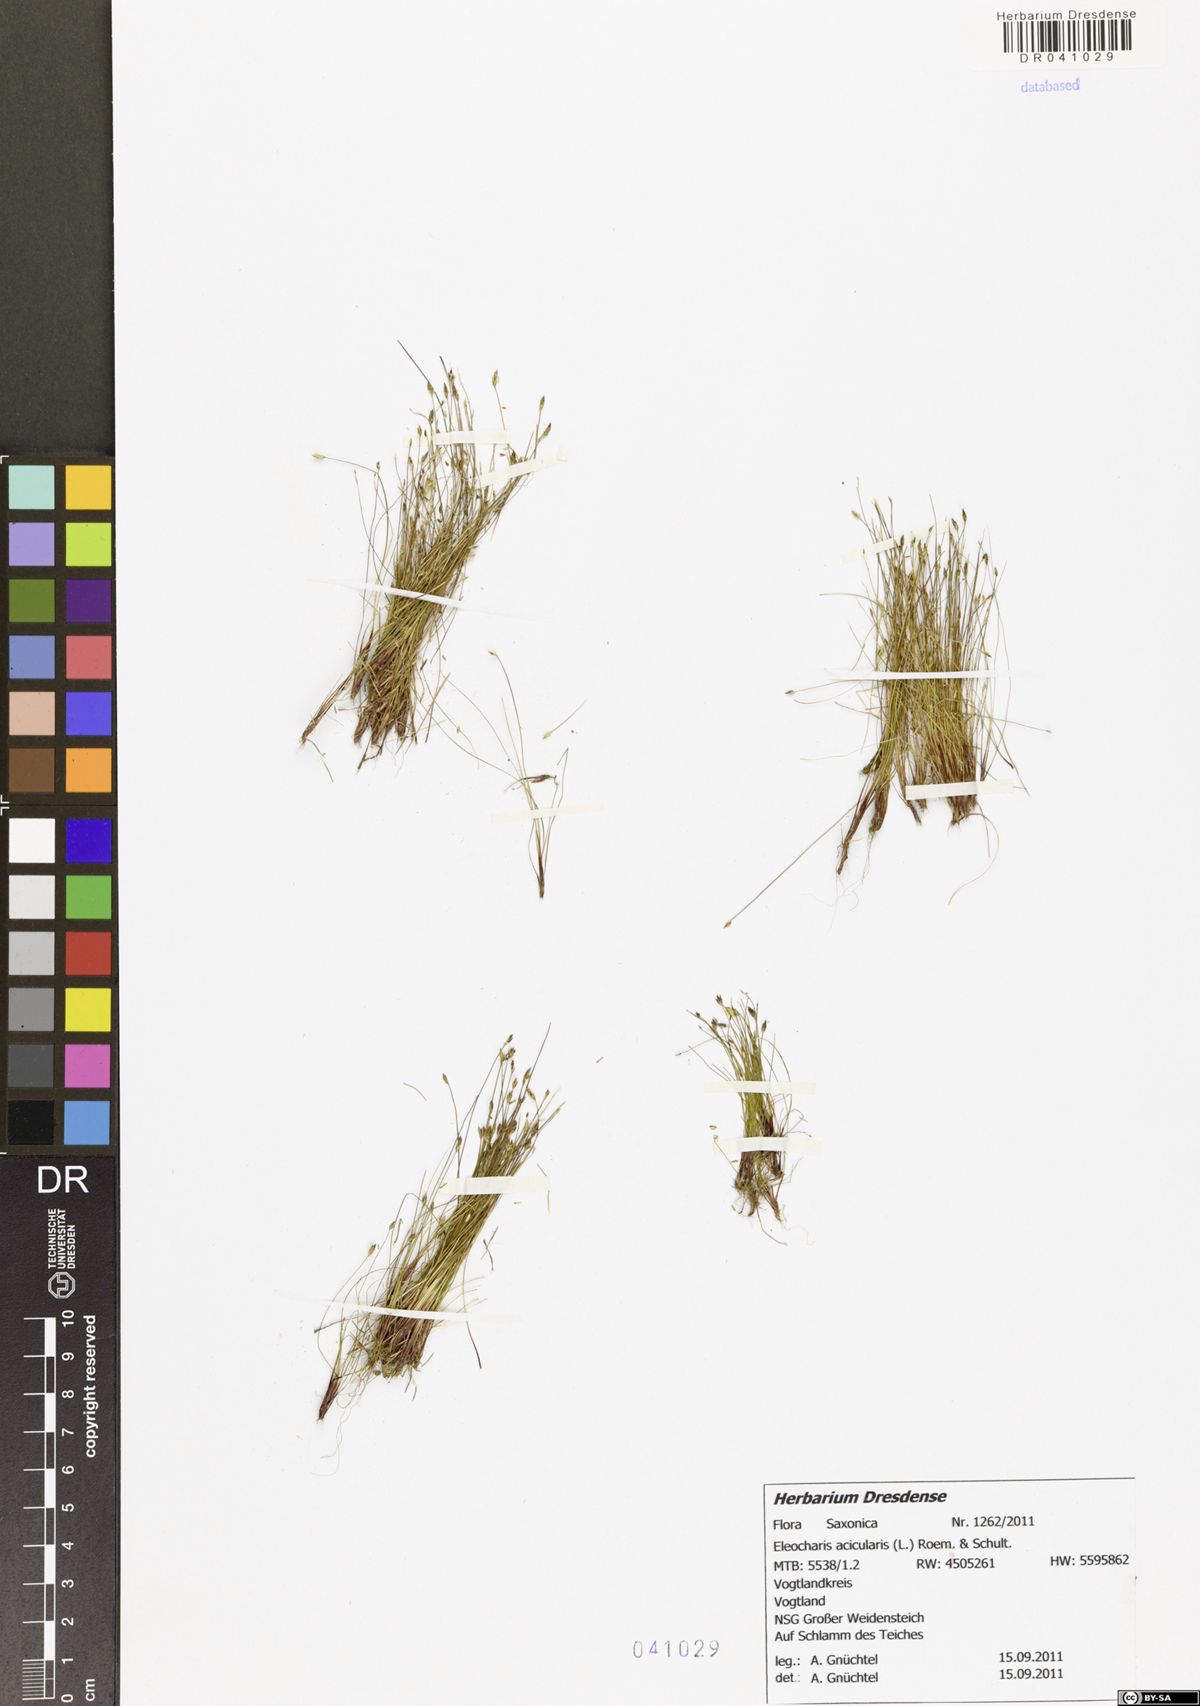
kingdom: Plantae
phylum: Tracheophyta
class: Liliopsida
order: Poales
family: Cyperaceae
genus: Eleocharis
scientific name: Eleocharis acicularis
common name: Needle spike-rush
